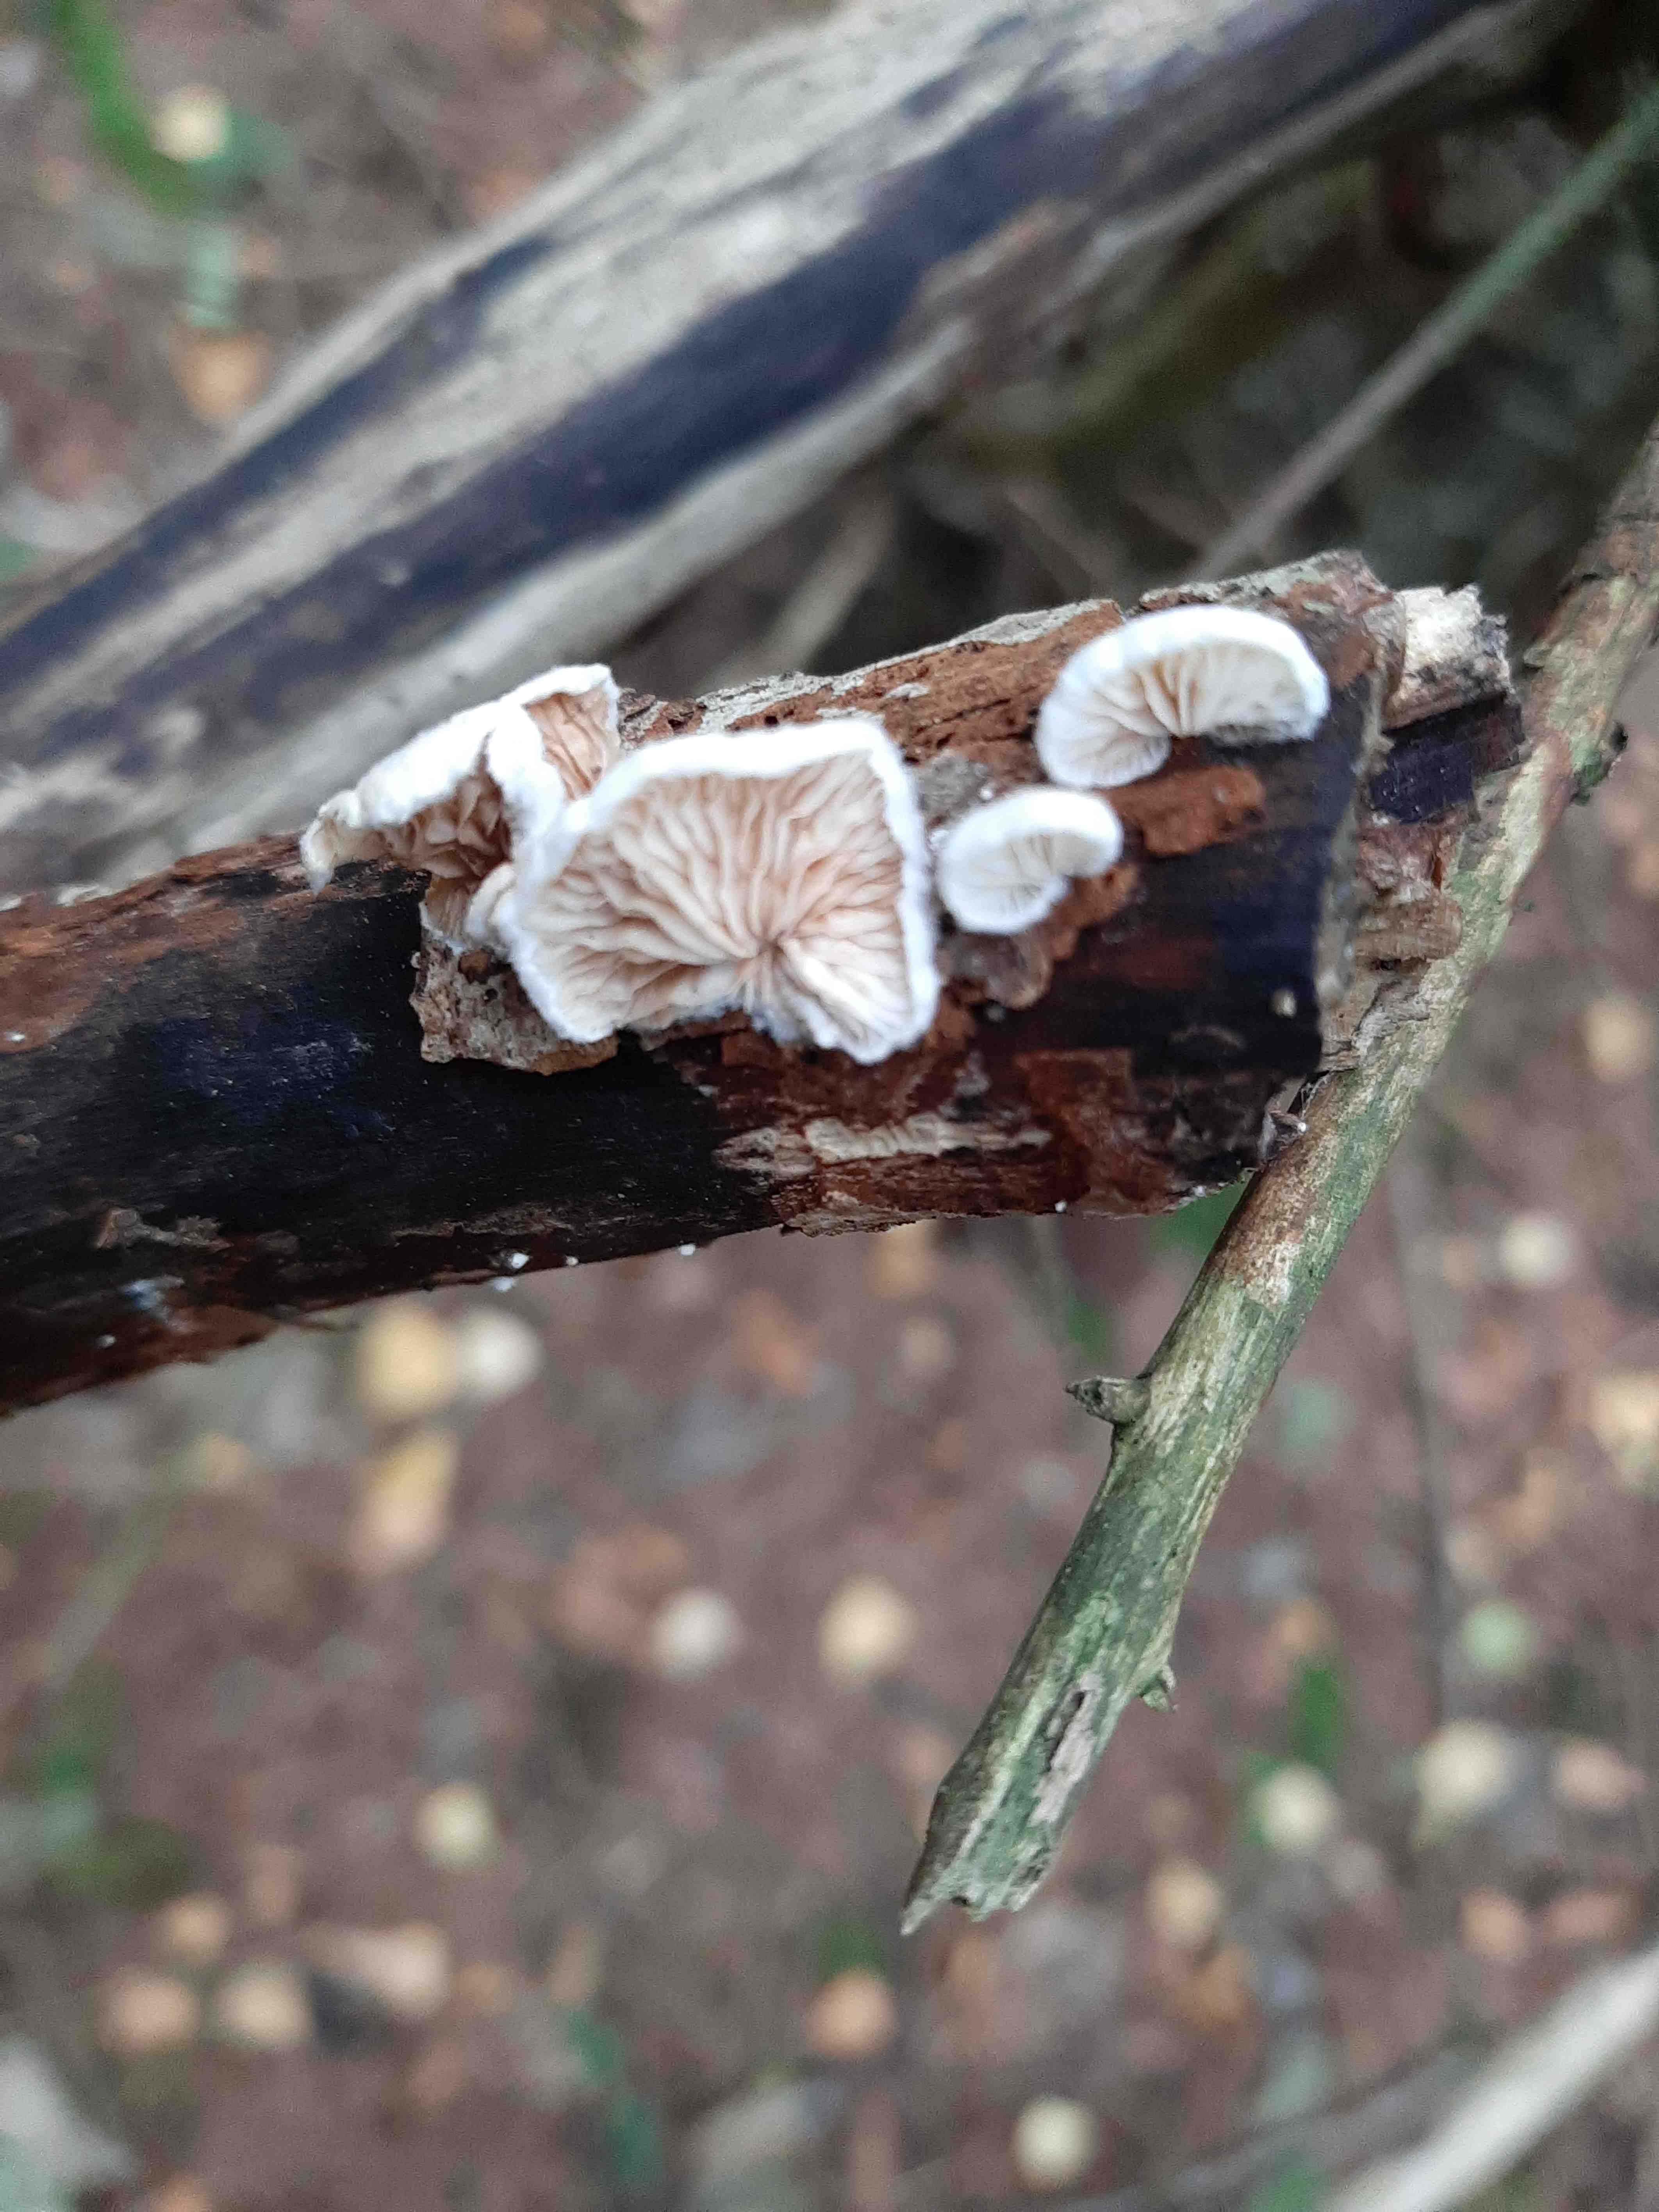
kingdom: Fungi
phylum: Basidiomycota
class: Agaricomycetes
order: Agaricales
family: Crepidotaceae
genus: Crepidotus
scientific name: Crepidotus
